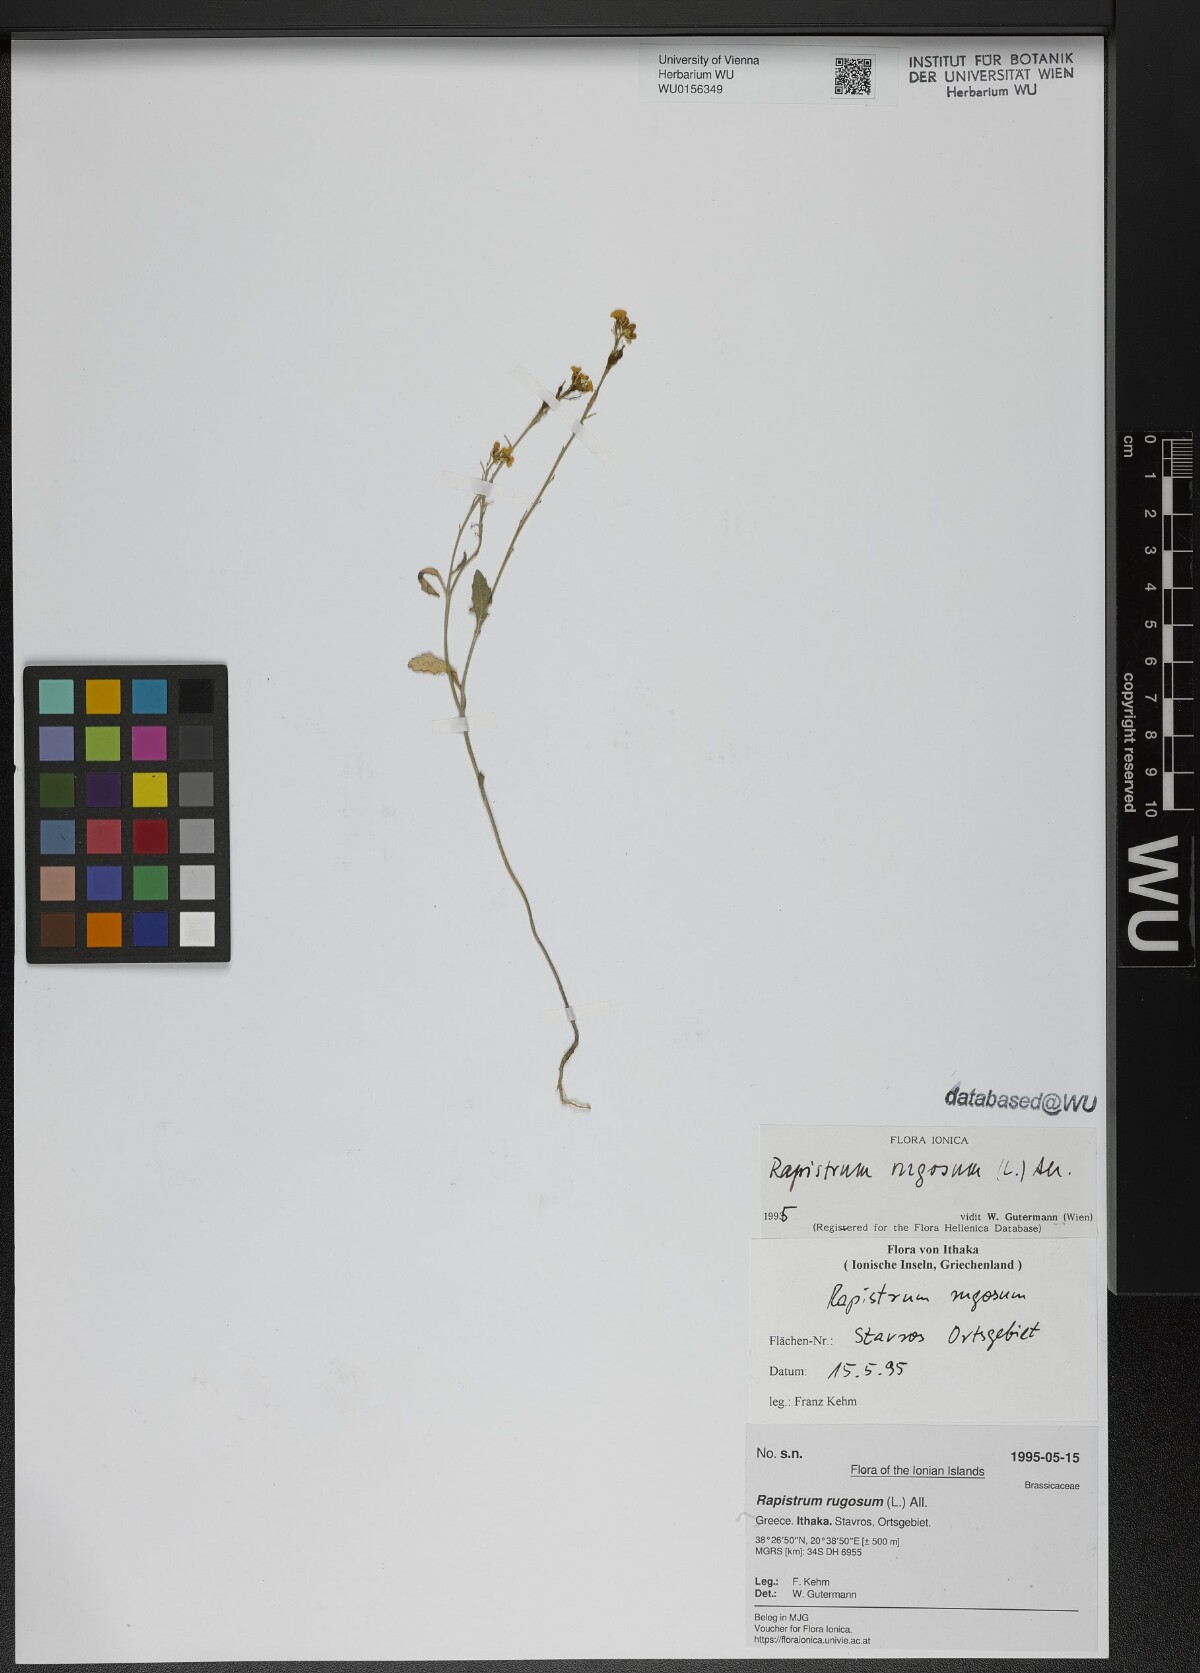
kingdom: Plantae
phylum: Tracheophyta
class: Magnoliopsida
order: Brassicales
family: Brassicaceae
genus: Rapistrum
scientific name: Rapistrum rugosum
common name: Annual bastardcabbage
